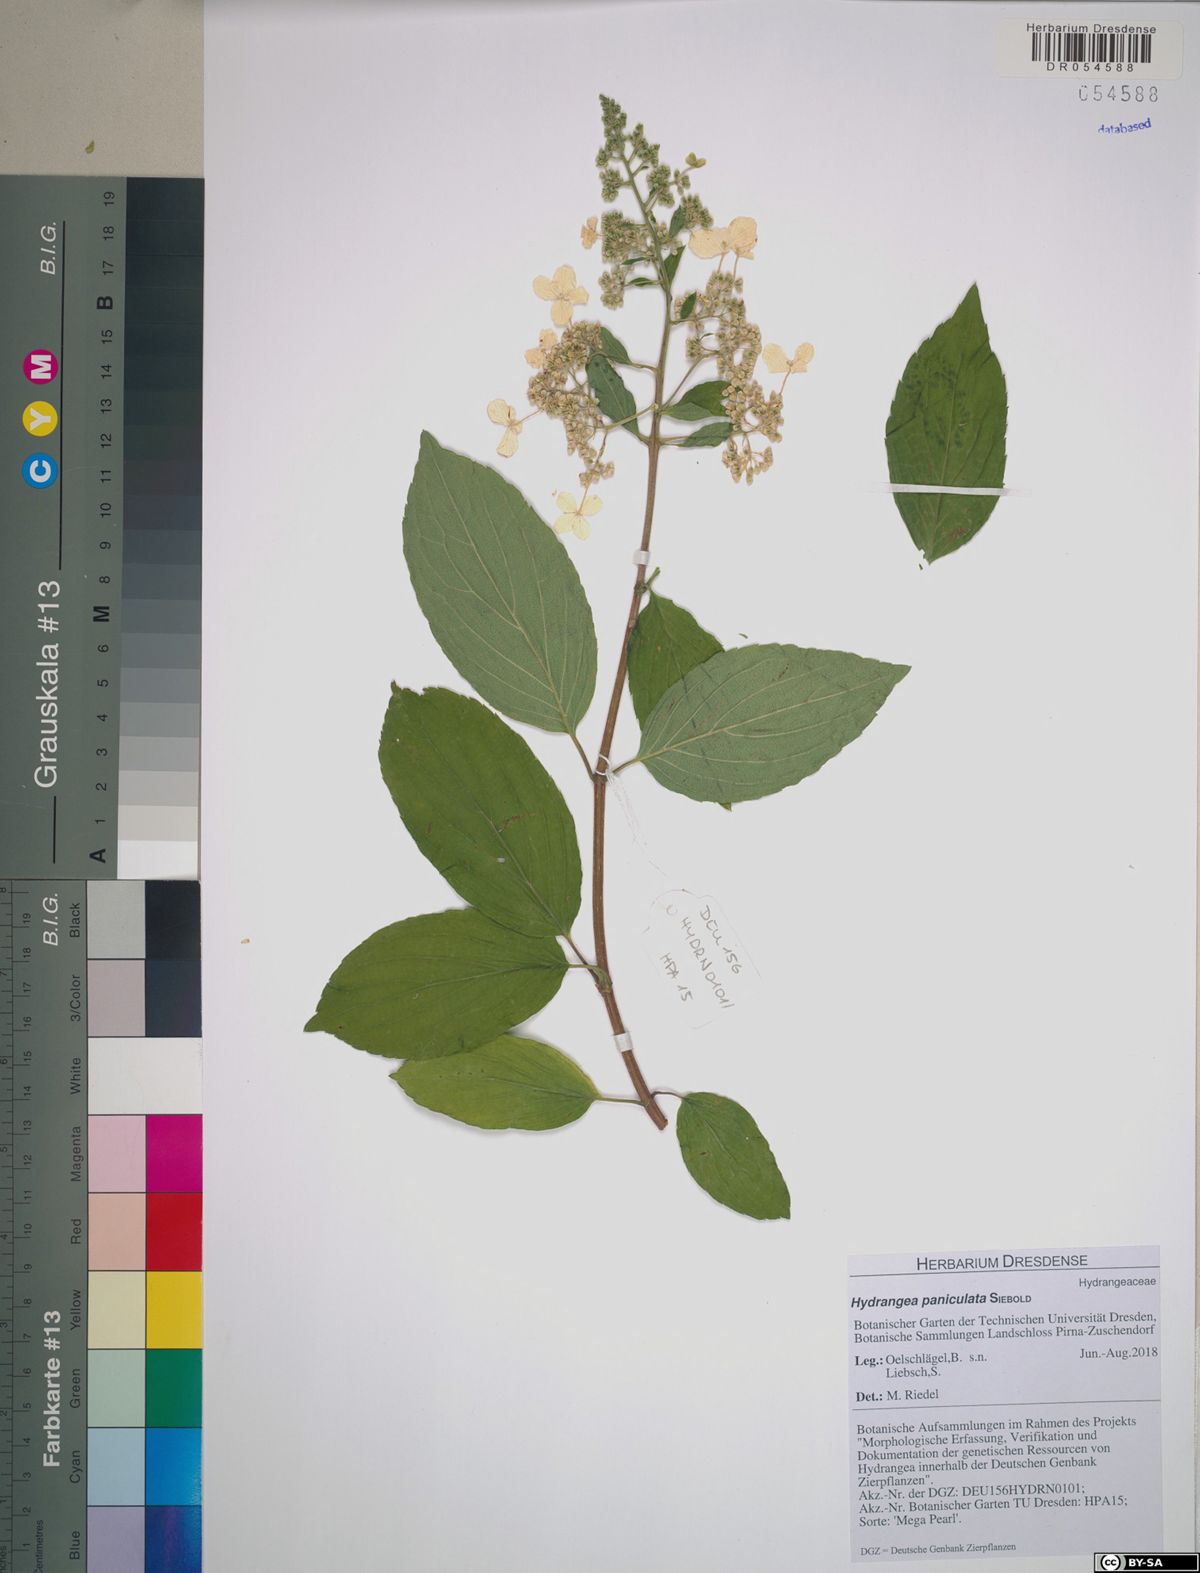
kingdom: Plantae
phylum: Tracheophyta
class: Magnoliopsida
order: Cornales
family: Hydrangeaceae
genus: Hydrangea
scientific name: Hydrangea paniculata
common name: Panicled hydrangea
